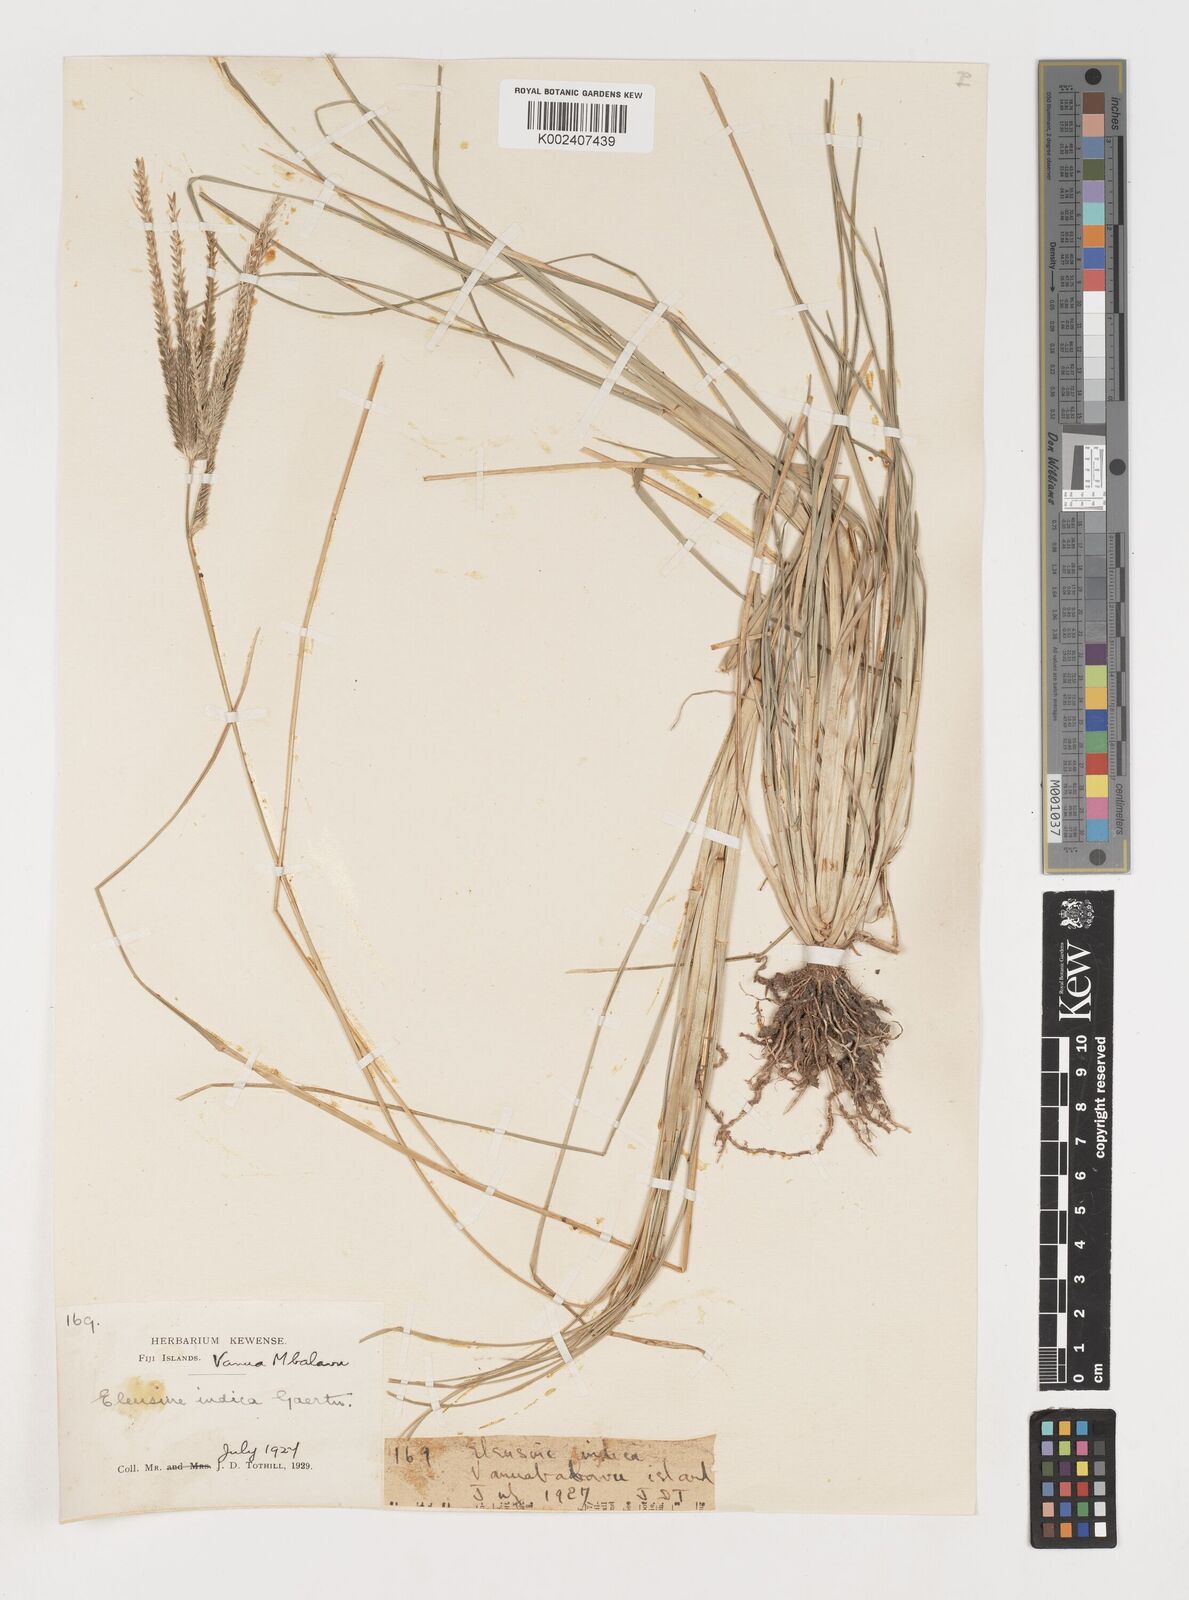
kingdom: Plantae
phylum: Tracheophyta
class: Liliopsida
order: Poales
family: Poaceae
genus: Eleusine
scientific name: Eleusine indica
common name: Yard-grass
